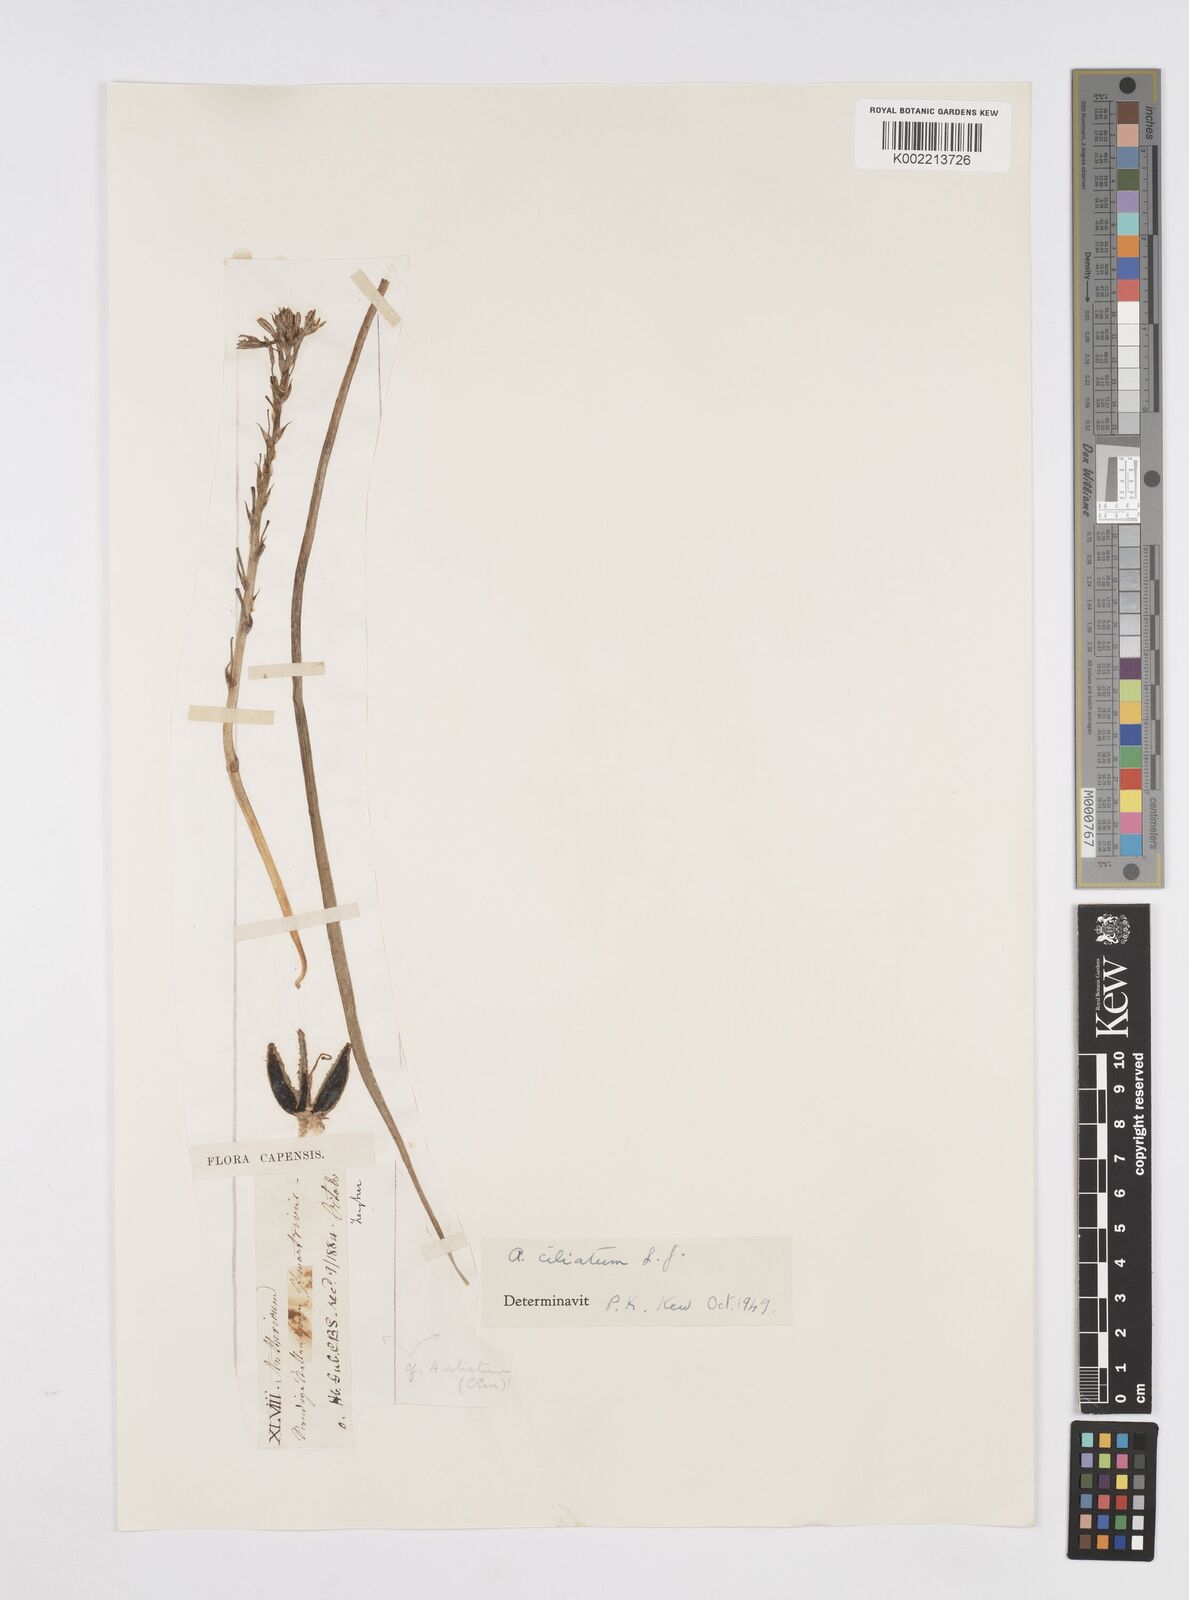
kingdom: Plantae
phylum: Tracheophyta
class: Liliopsida
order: Asparagales
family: Asphodelaceae
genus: Trachyandra
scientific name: Trachyandra ciliata
